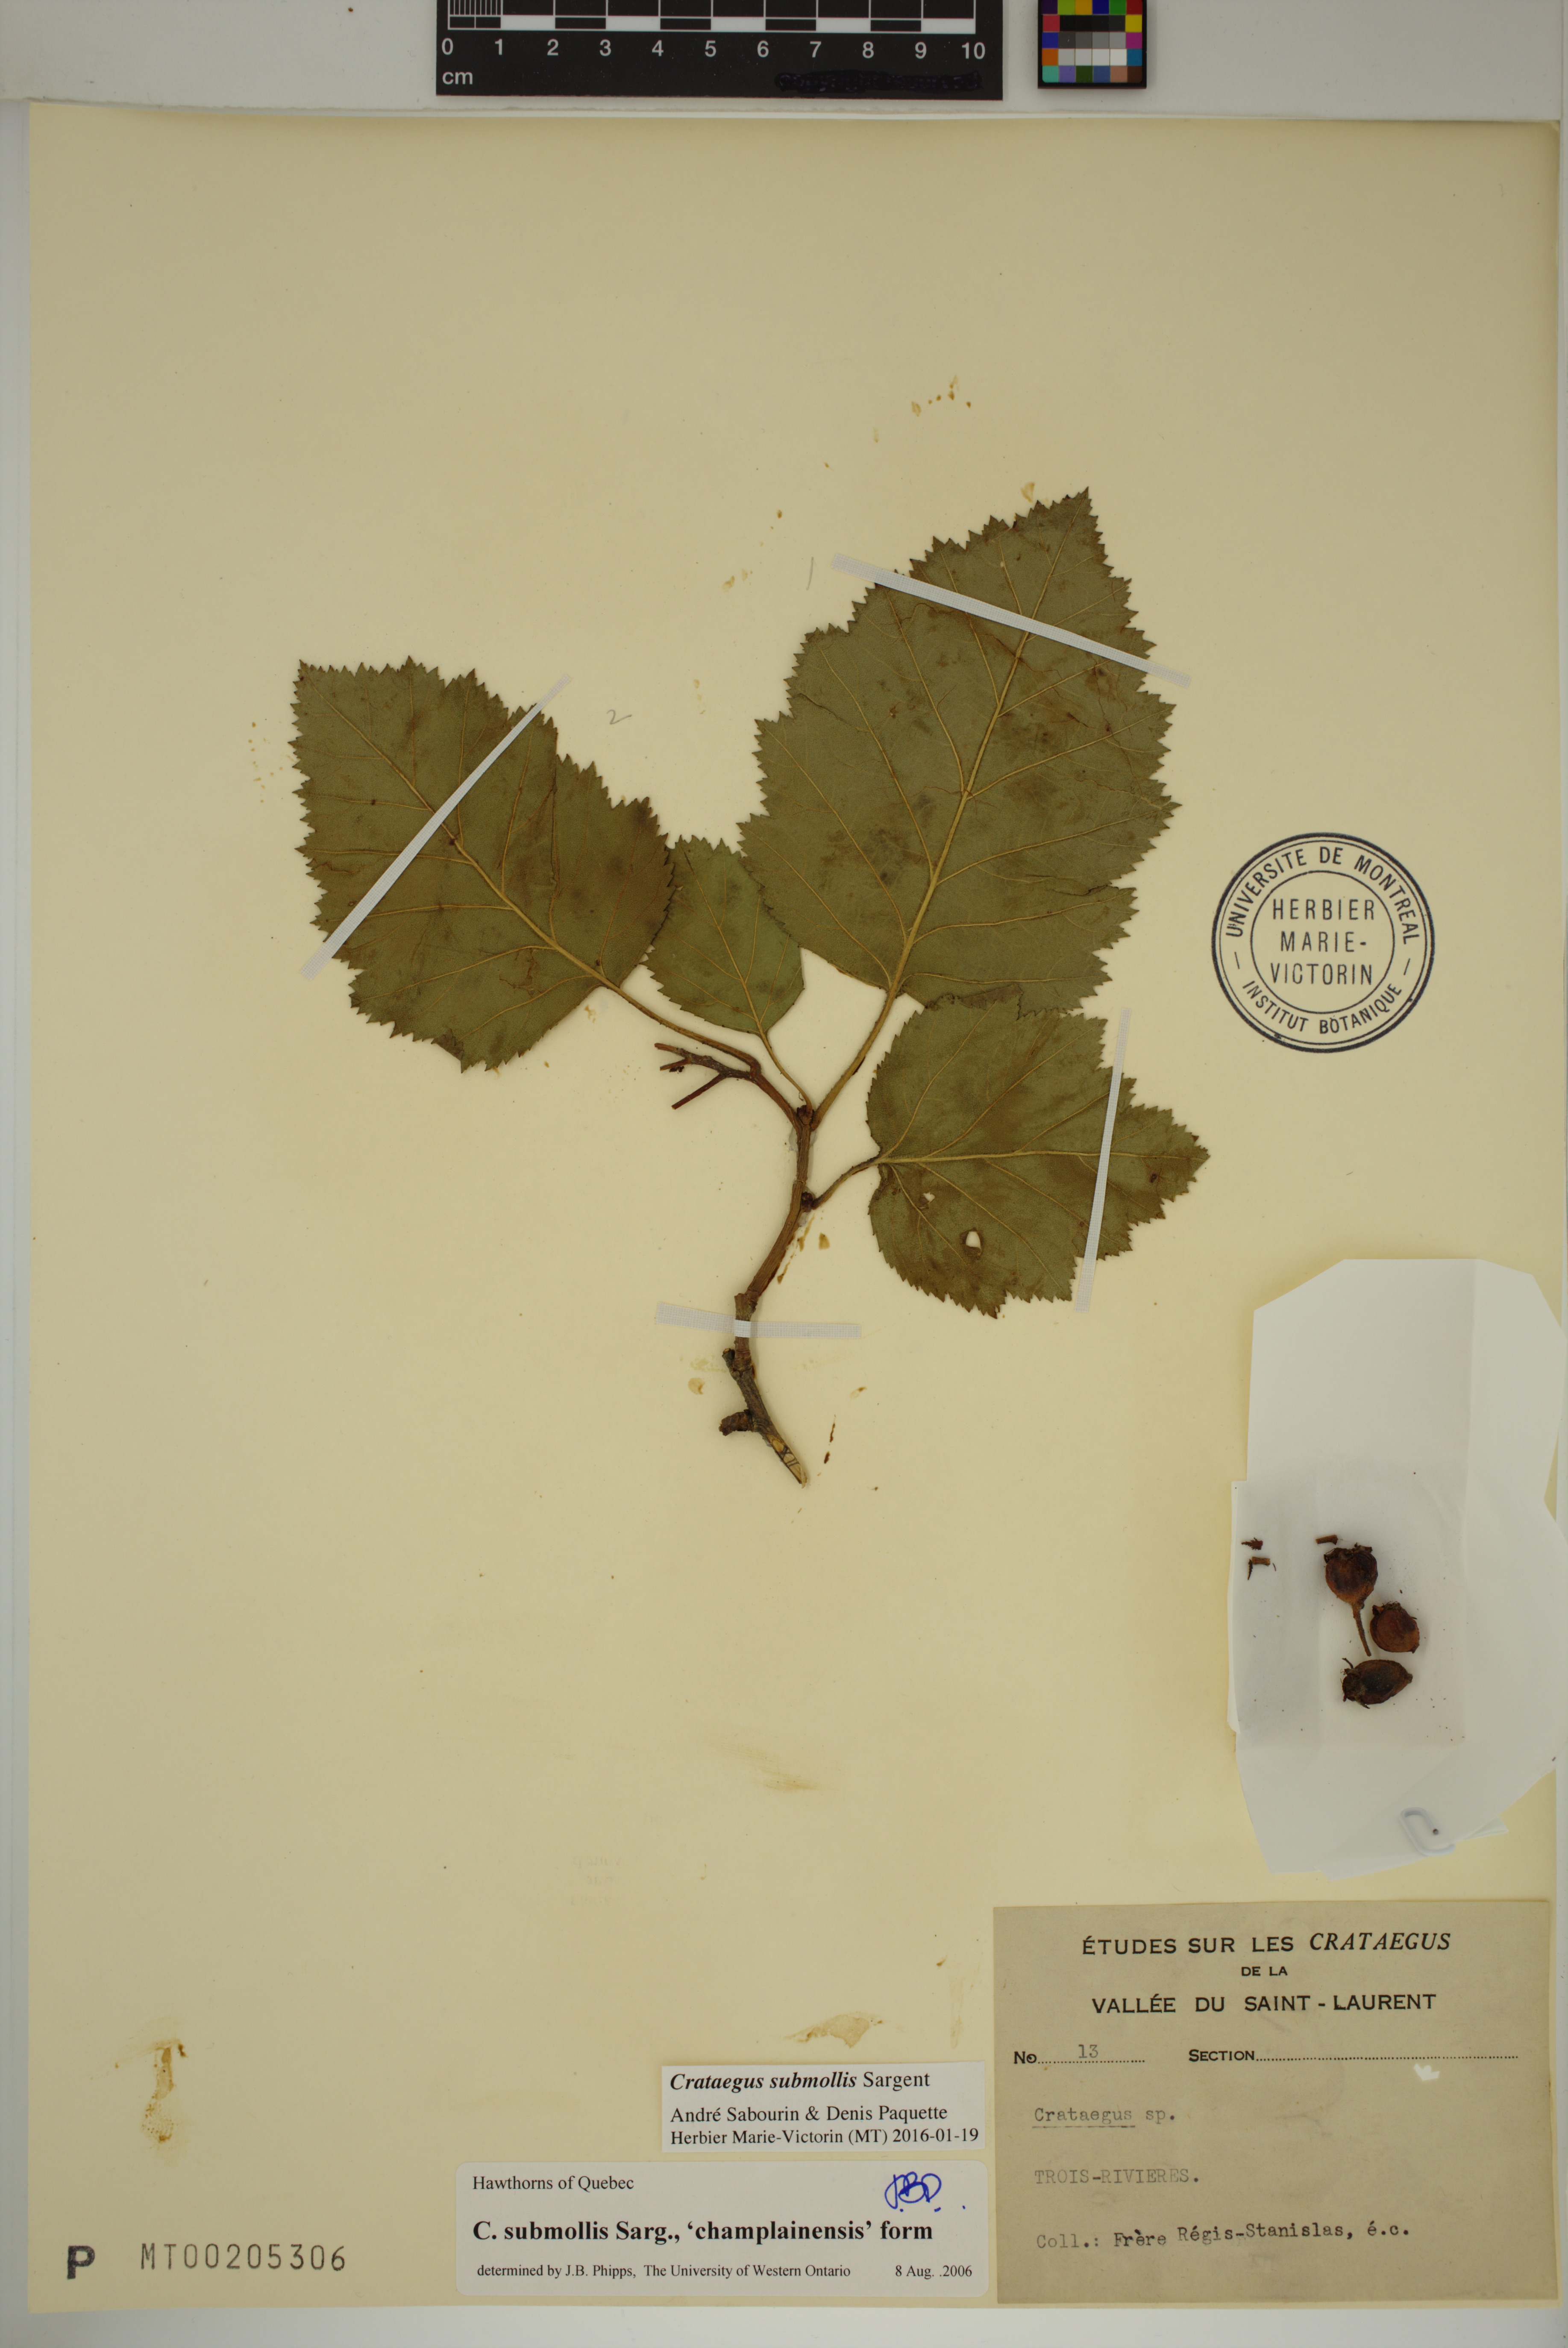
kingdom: Plantae
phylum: Tracheophyta
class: Magnoliopsida
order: Rosales
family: Rosaceae
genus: Crataegus
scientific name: Crataegus submollis
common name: Hairy cockspurthorn
